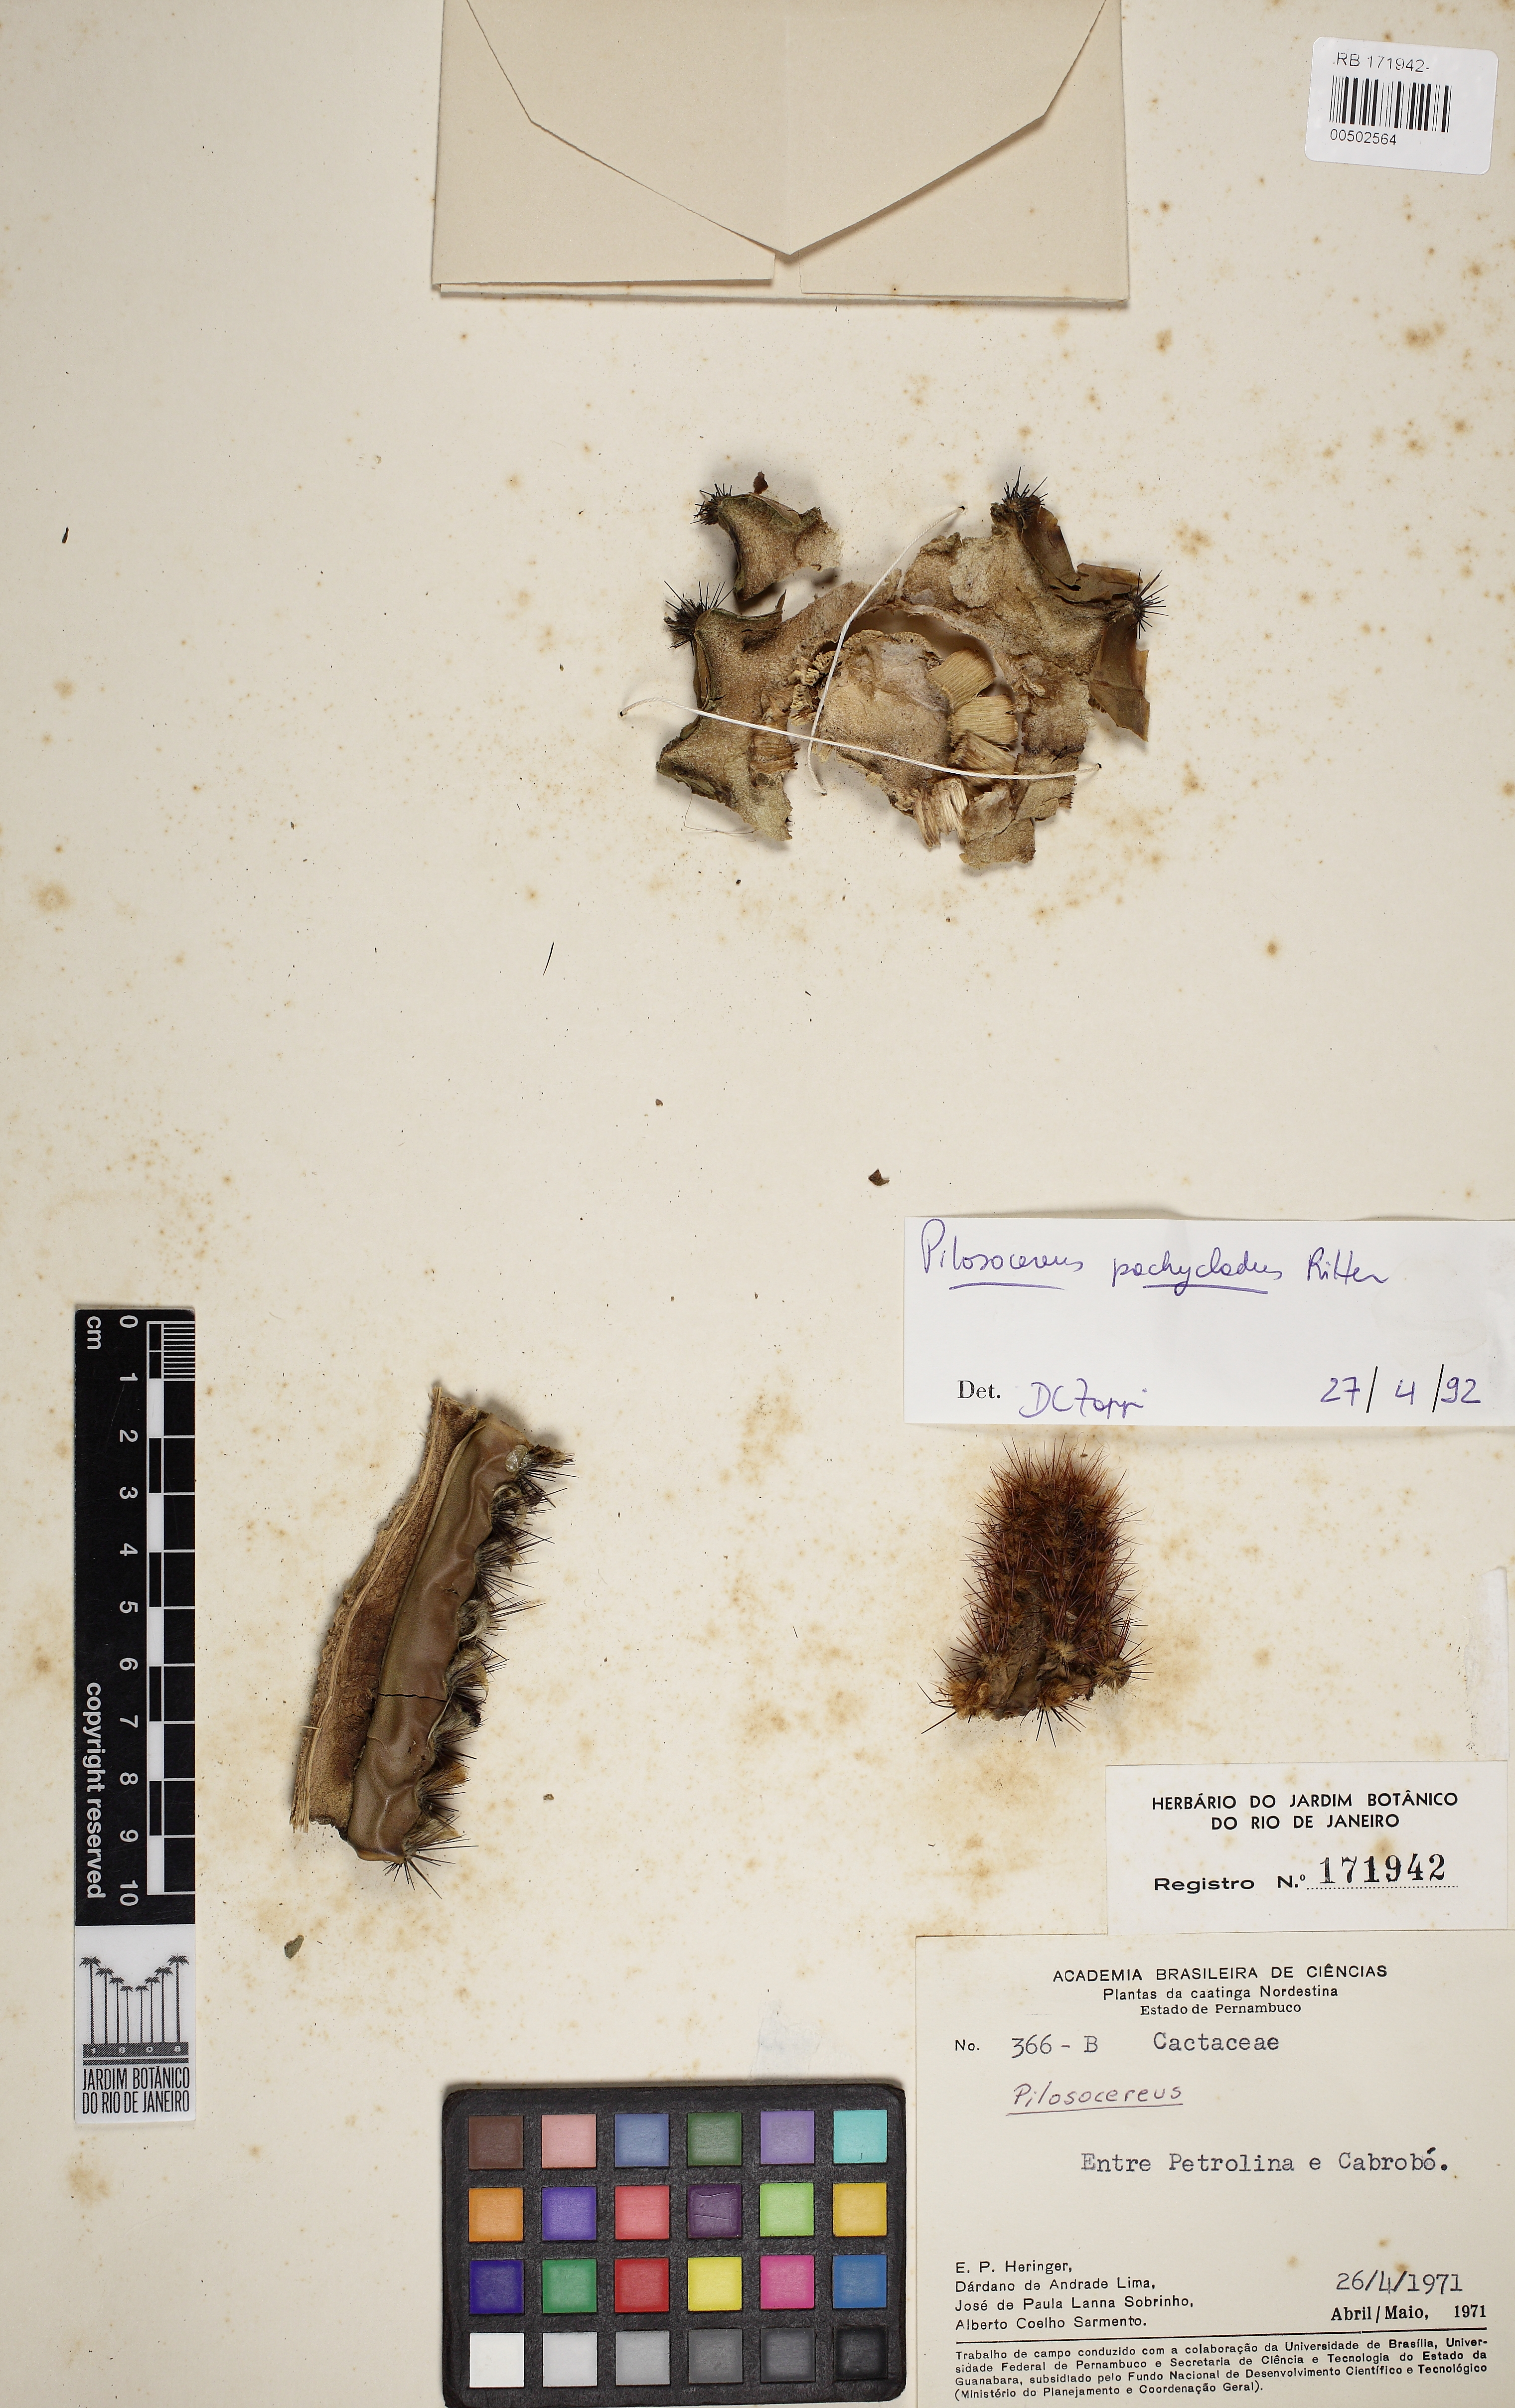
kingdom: Plantae
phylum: Tracheophyta
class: Magnoliopsida
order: Caryophyllales
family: Cactaceae
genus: Pilosocereus
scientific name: Pilosocereus pachycladus
